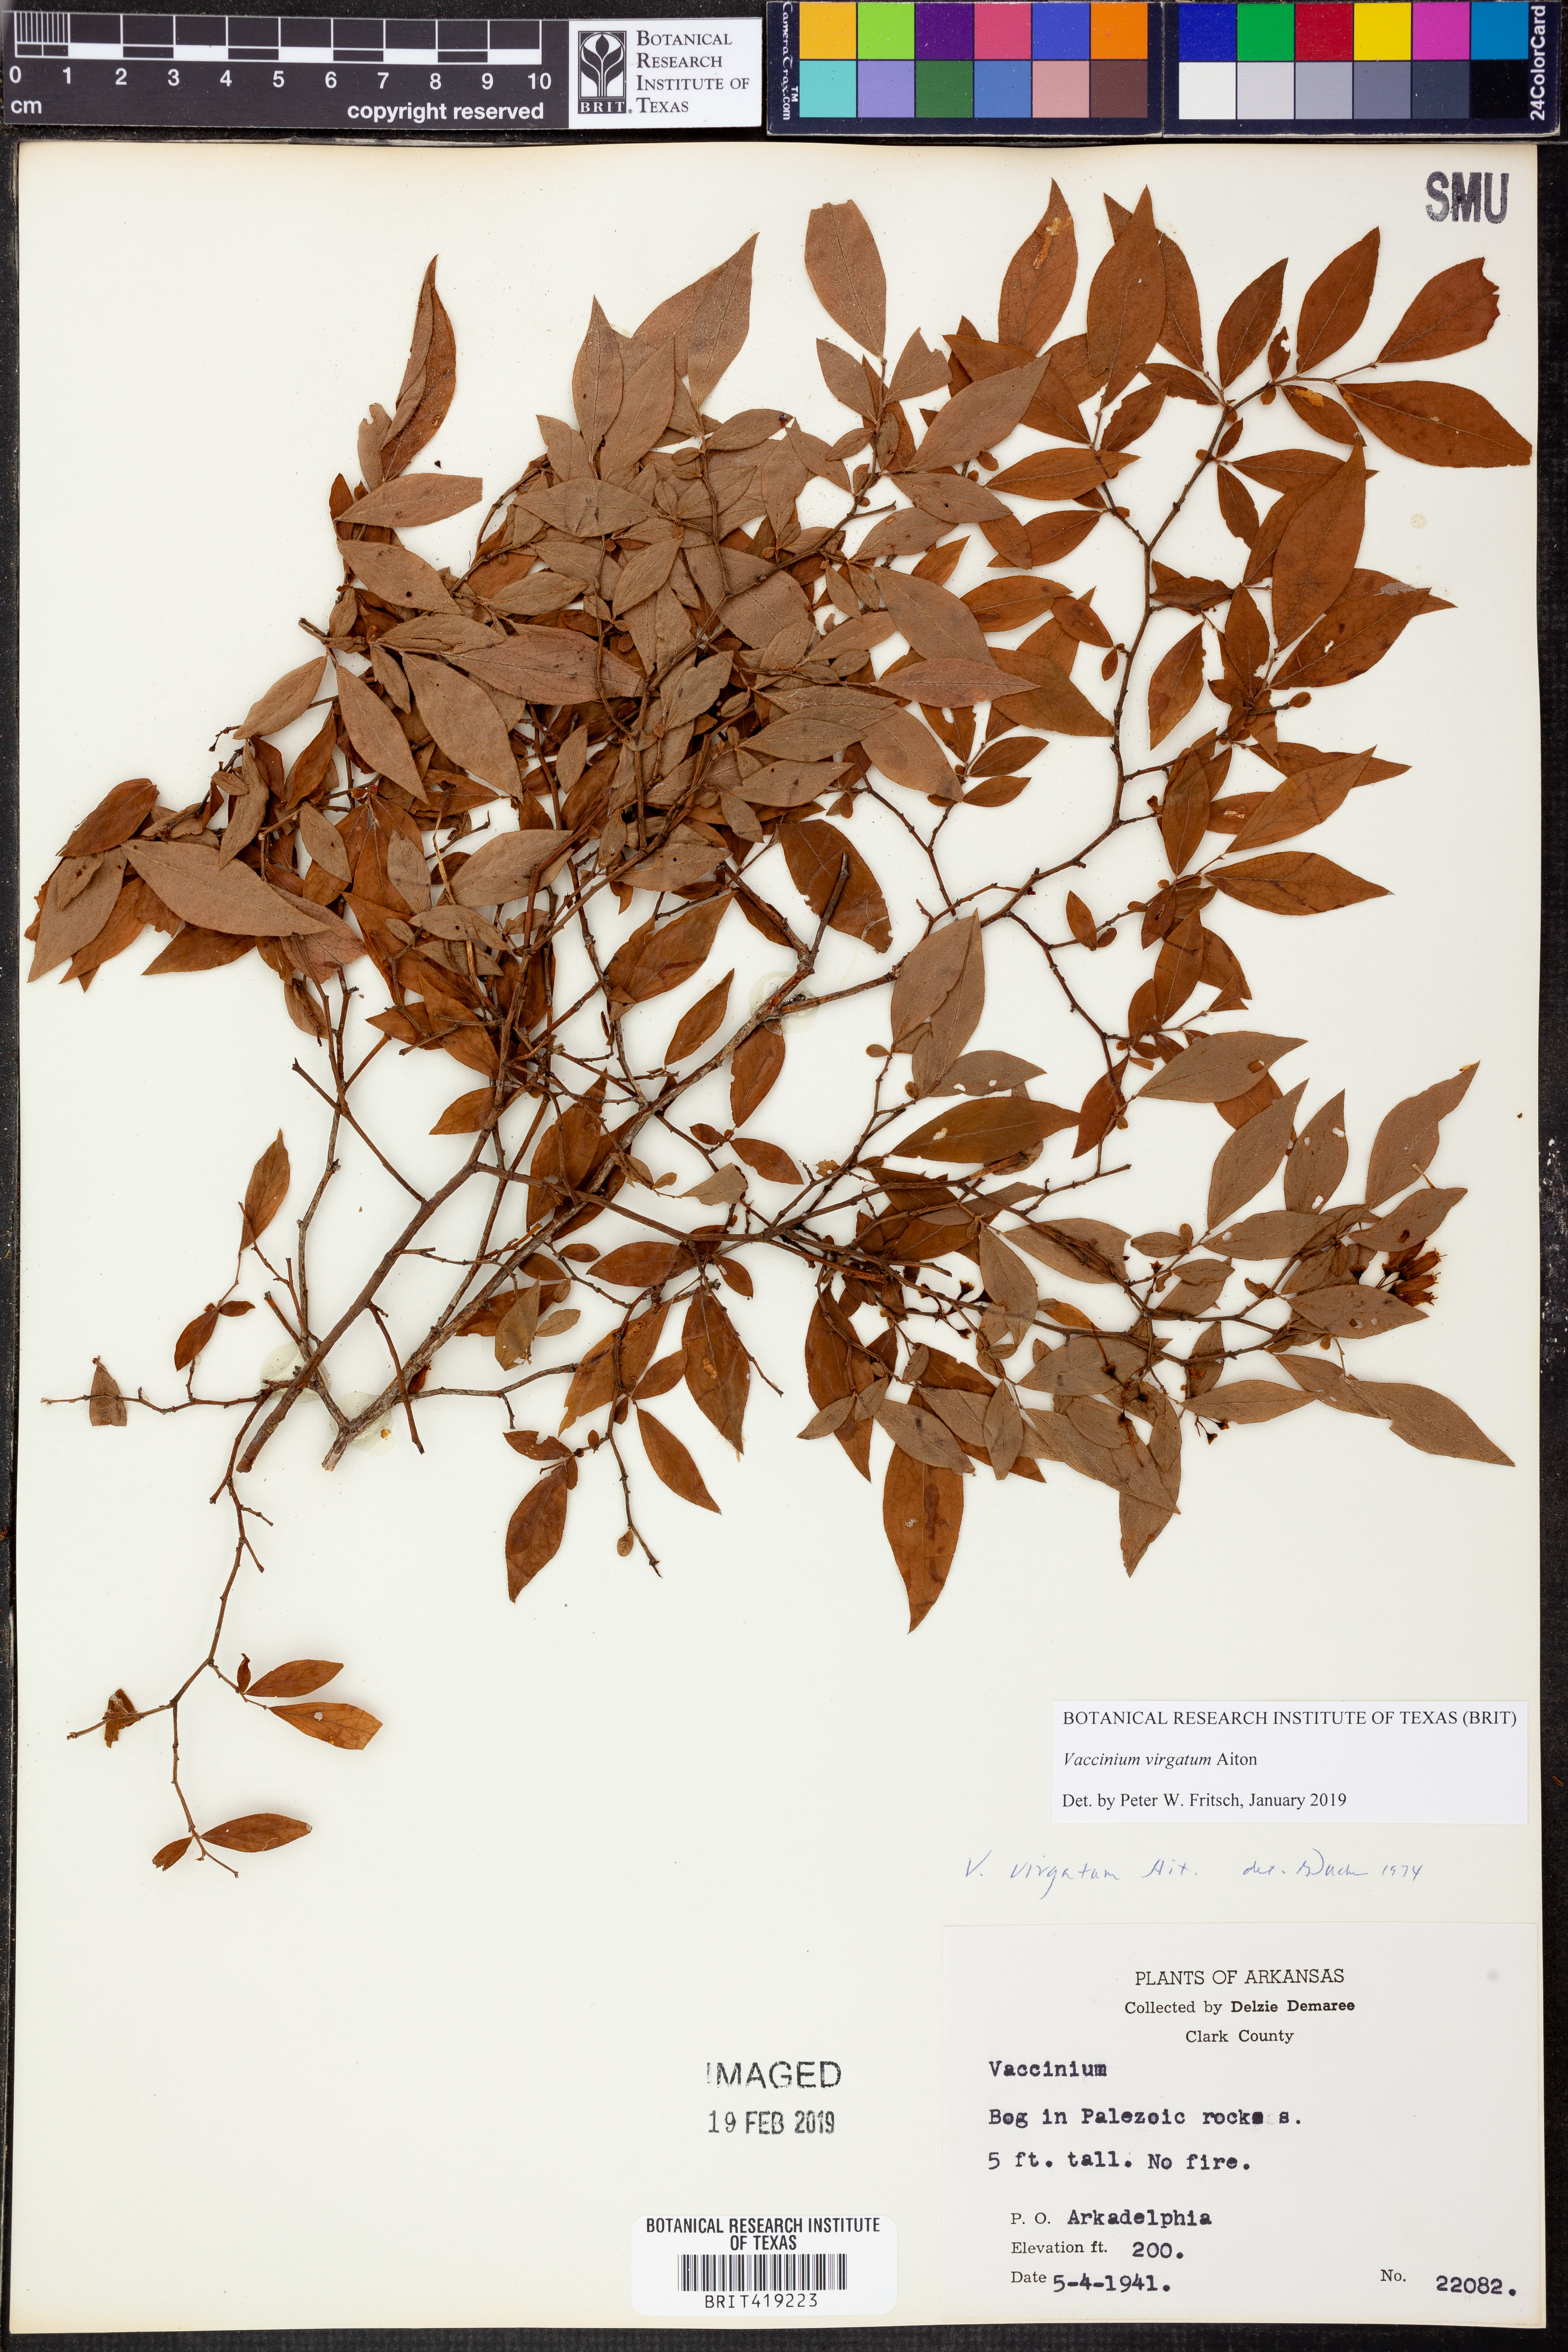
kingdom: Plantae
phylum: Tracheophyta
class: Magnoliopsida
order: Ericales
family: Ericaceae
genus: Vaccinium
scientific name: Vaccinium corymbosum
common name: Blueberry
